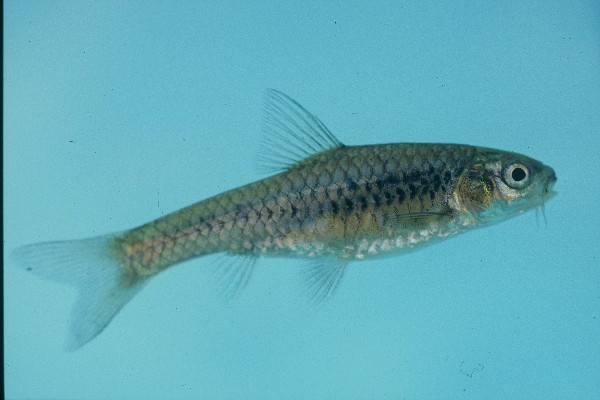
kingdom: Animalia
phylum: Chordata
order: Cypriniformes
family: Cyprinidae
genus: Enteromius
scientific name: Enteromius lineomaculatus
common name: Line-spotted barb
